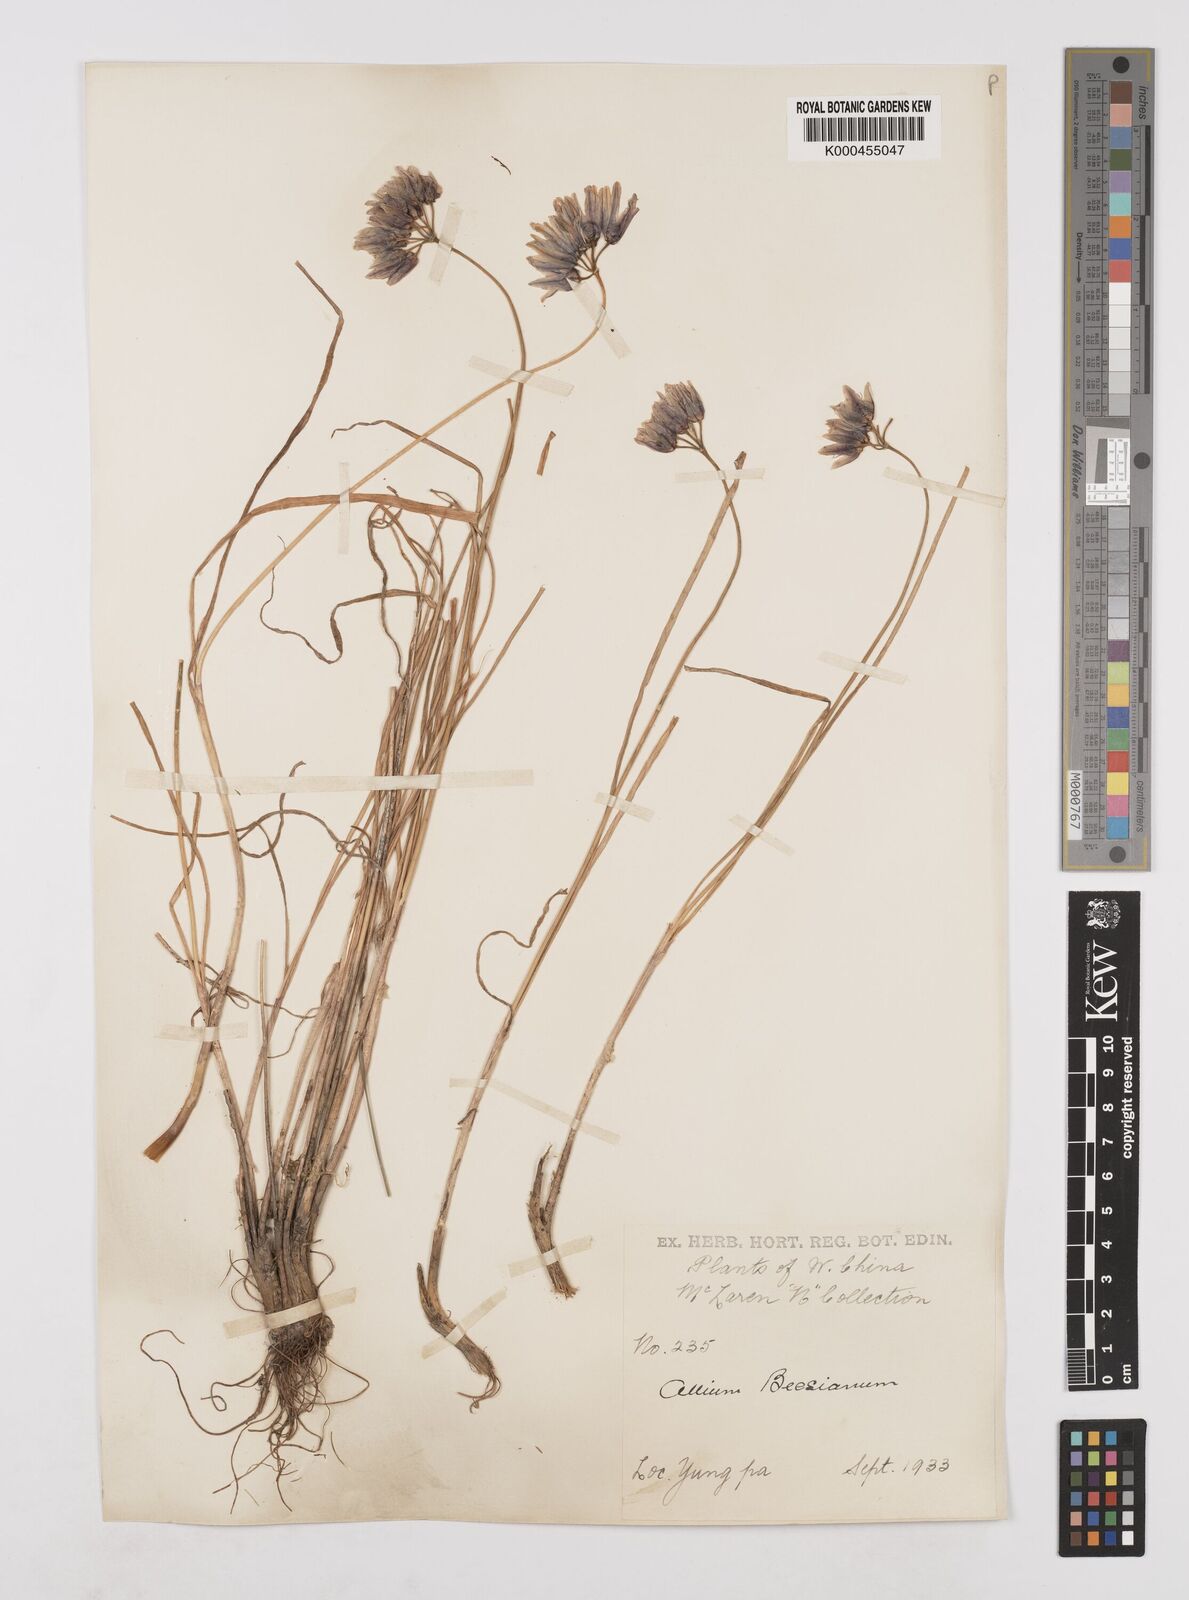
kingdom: Plantae
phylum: Tracheophyta
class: Liliopsida
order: Asparagales
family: Amaryllidaceae
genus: Allium
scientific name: Allium beesianum
